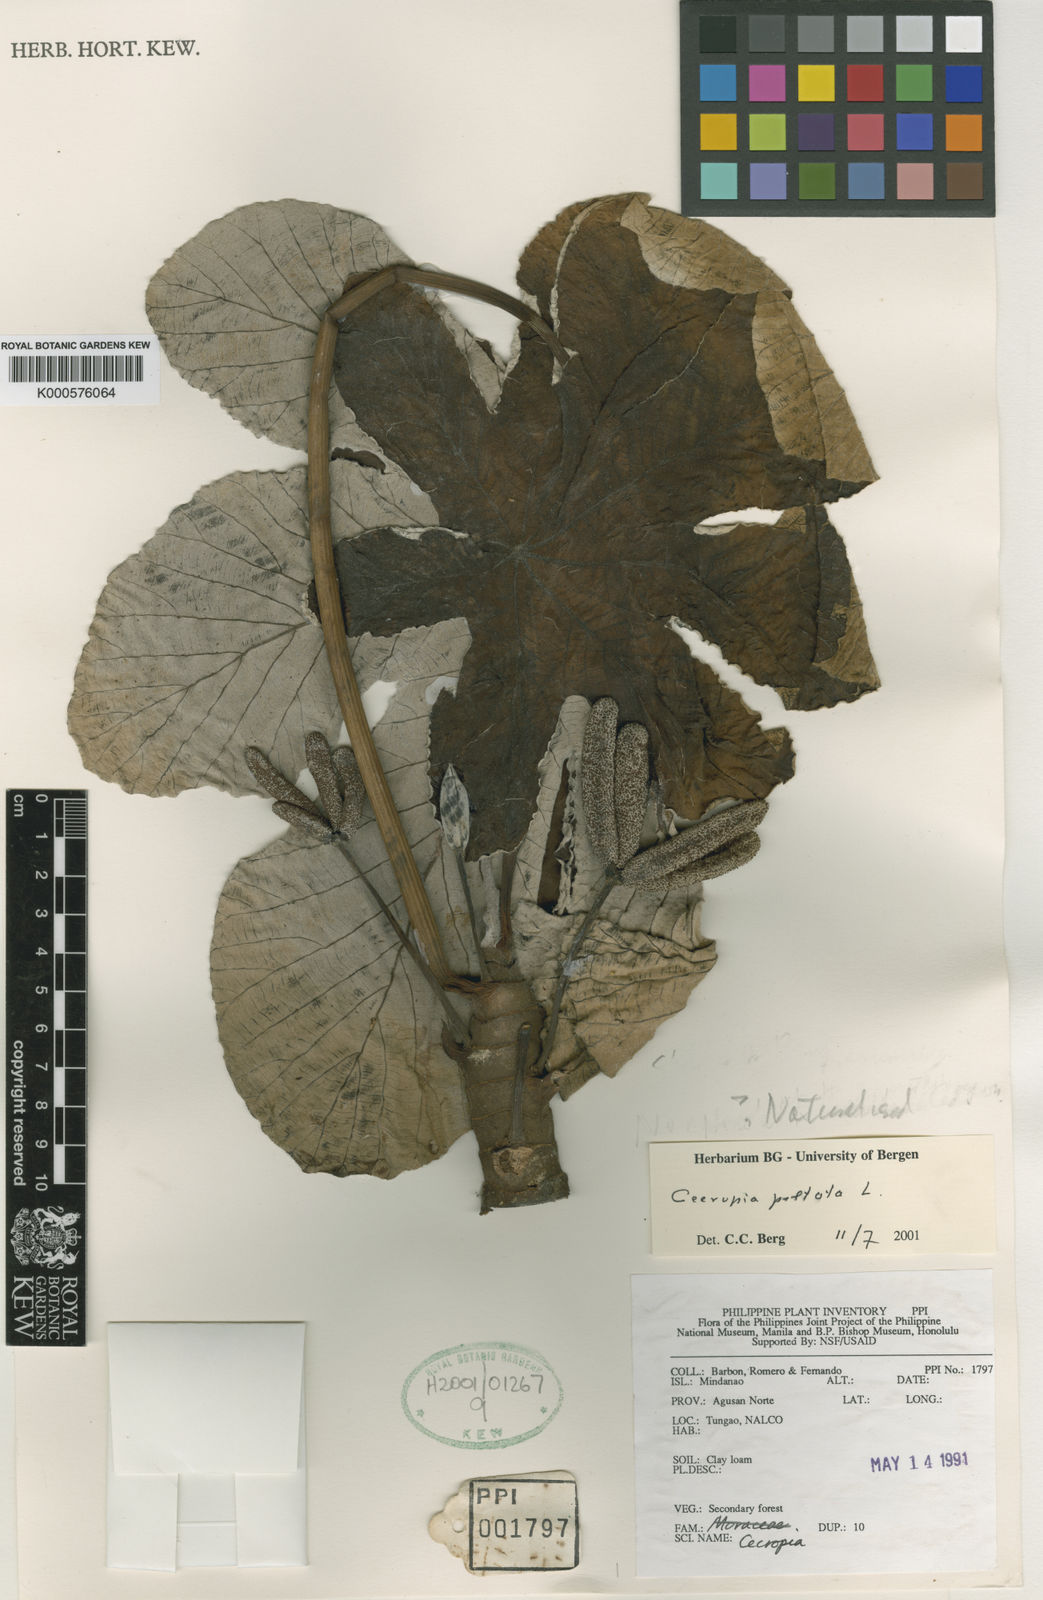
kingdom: Plantae
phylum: Tracheophyta
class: Magnoliopsida
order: Rosales
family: Urticaceae
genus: Cecropia
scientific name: Cecropia peltata
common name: Trumpet-tree
